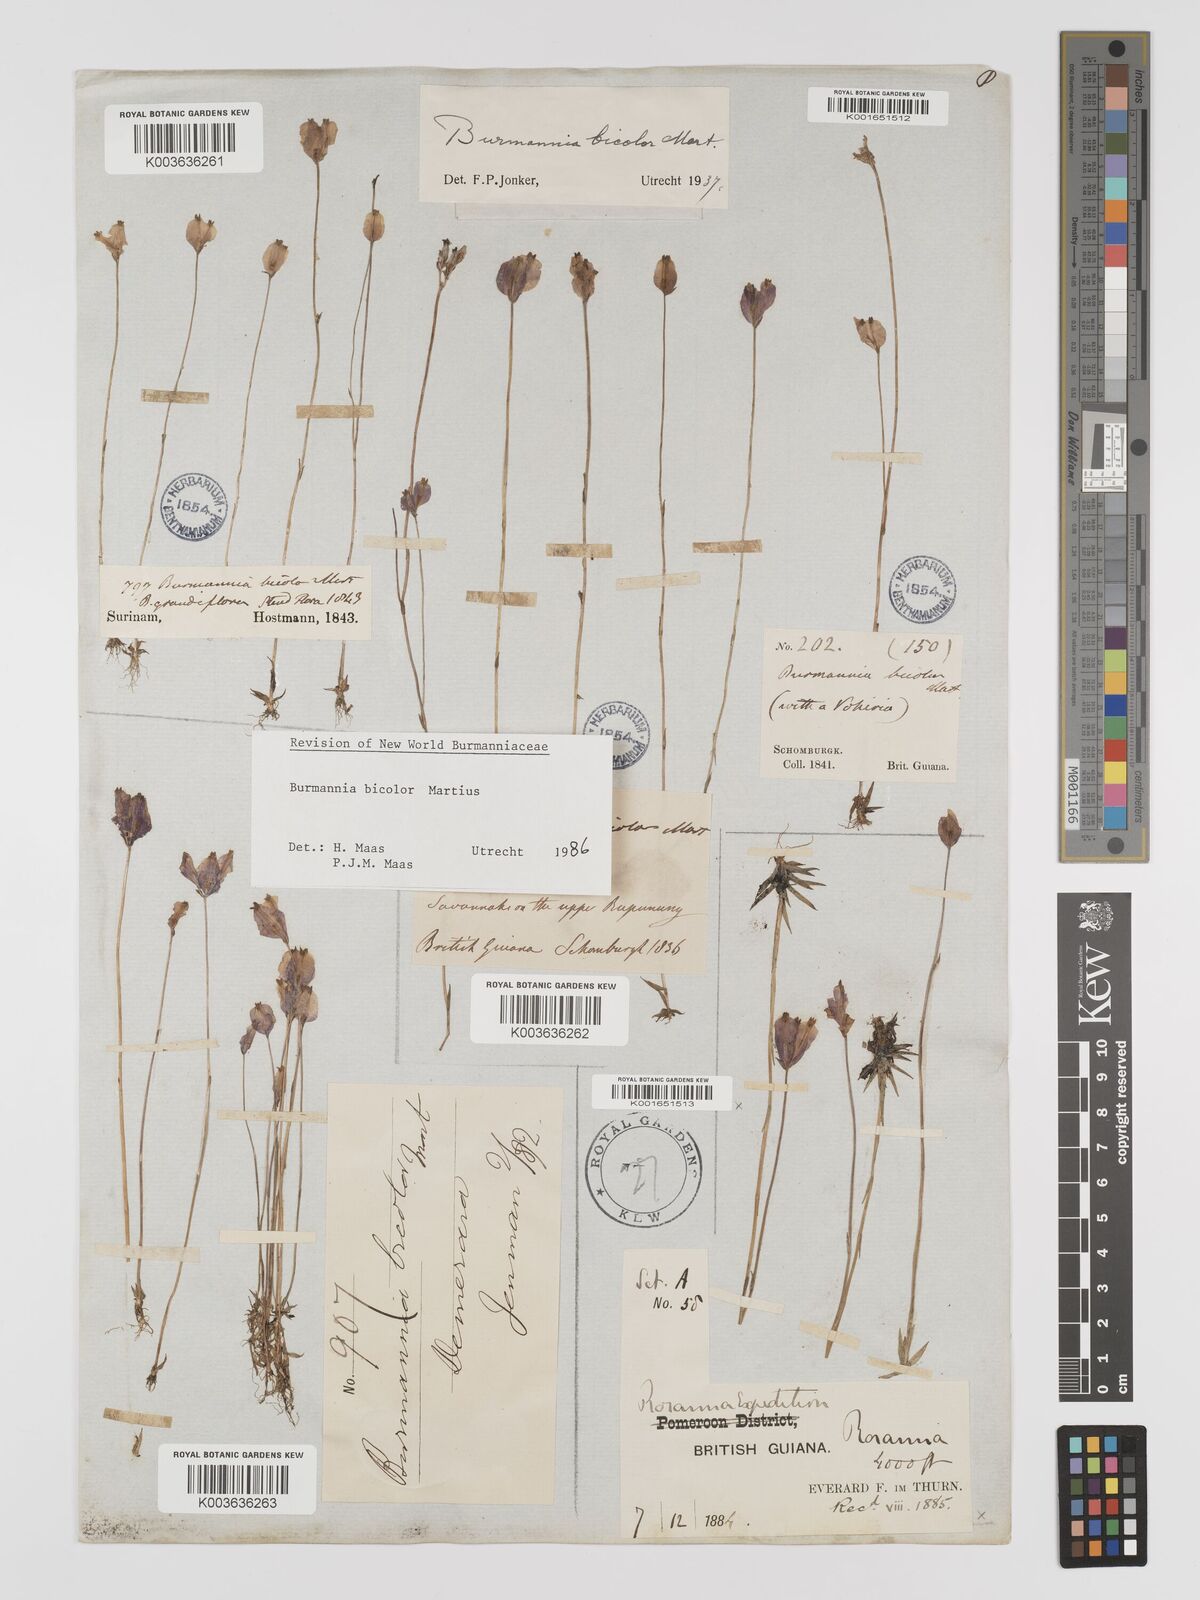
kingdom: Plantae
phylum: Tracheophyta
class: Liliopsida
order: Dioscoreales
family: Burmanniaceae
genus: Burmannia
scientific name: Burmannia bicolor
